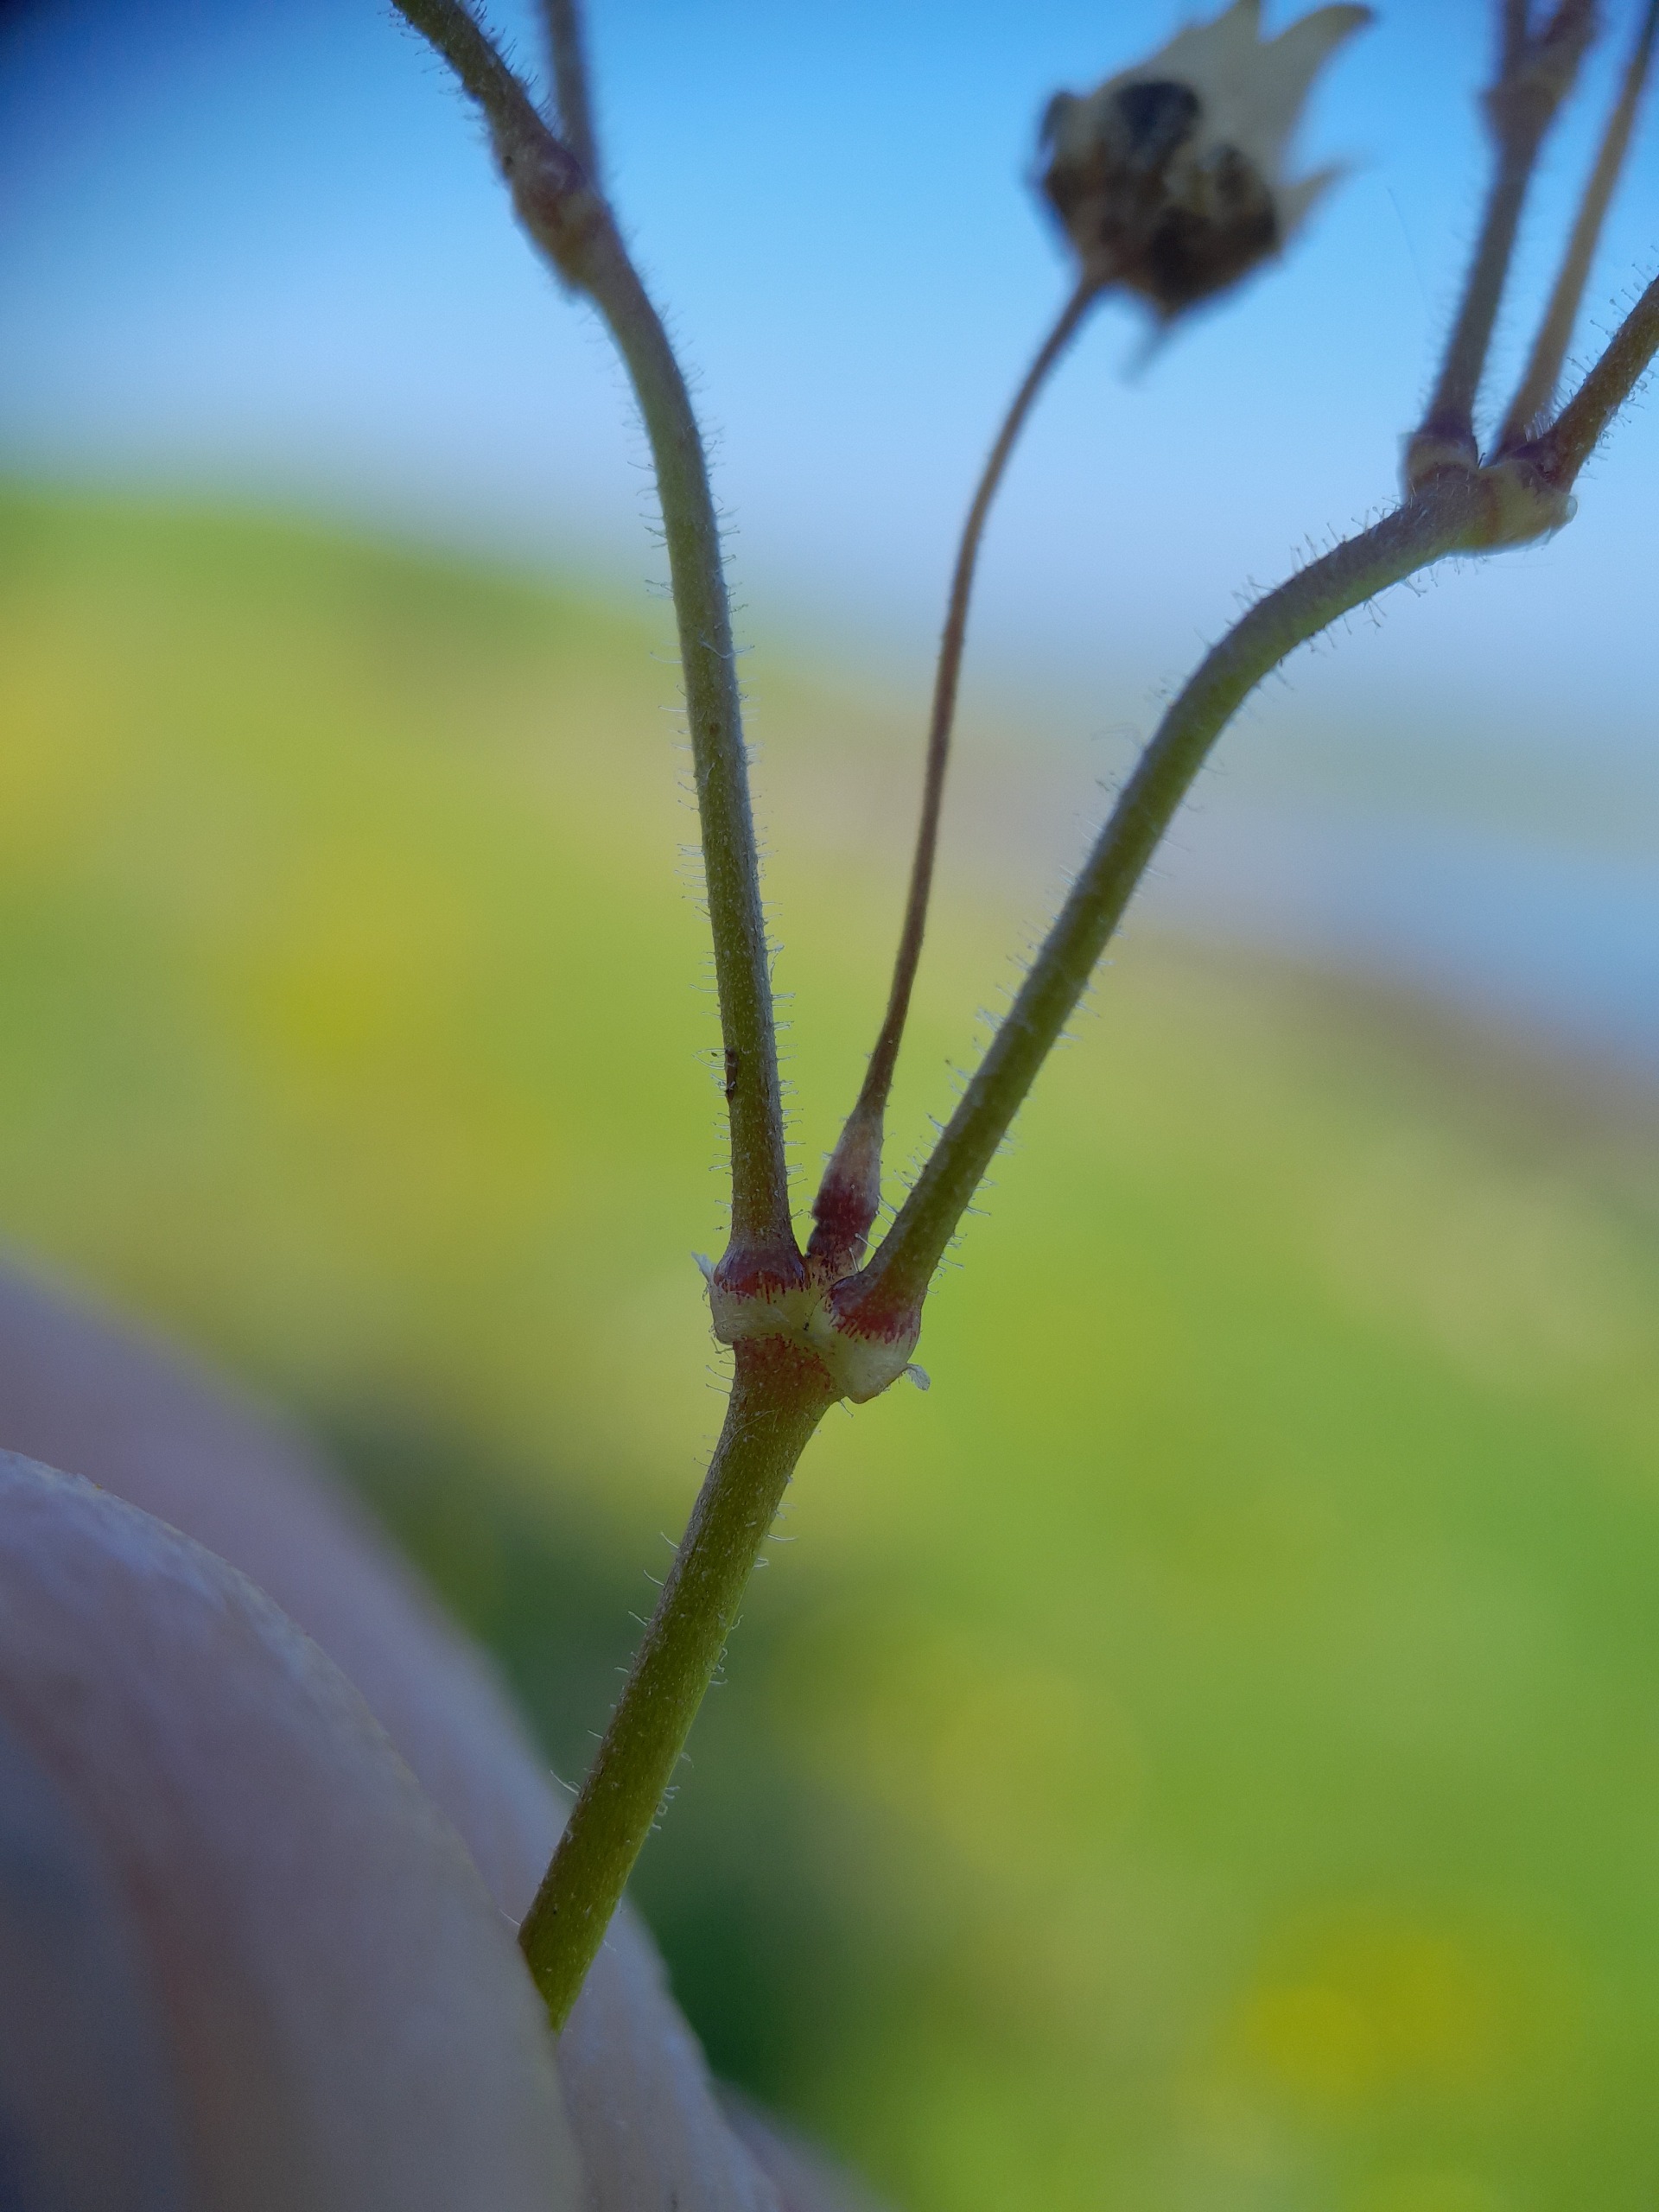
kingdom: Plantae
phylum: Tracheophyta
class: Magnoliopsida
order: Caryophyllales
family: Caryophyllaceae
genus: Spergula
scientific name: Spergula arvensis
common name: Almindelig spergel
